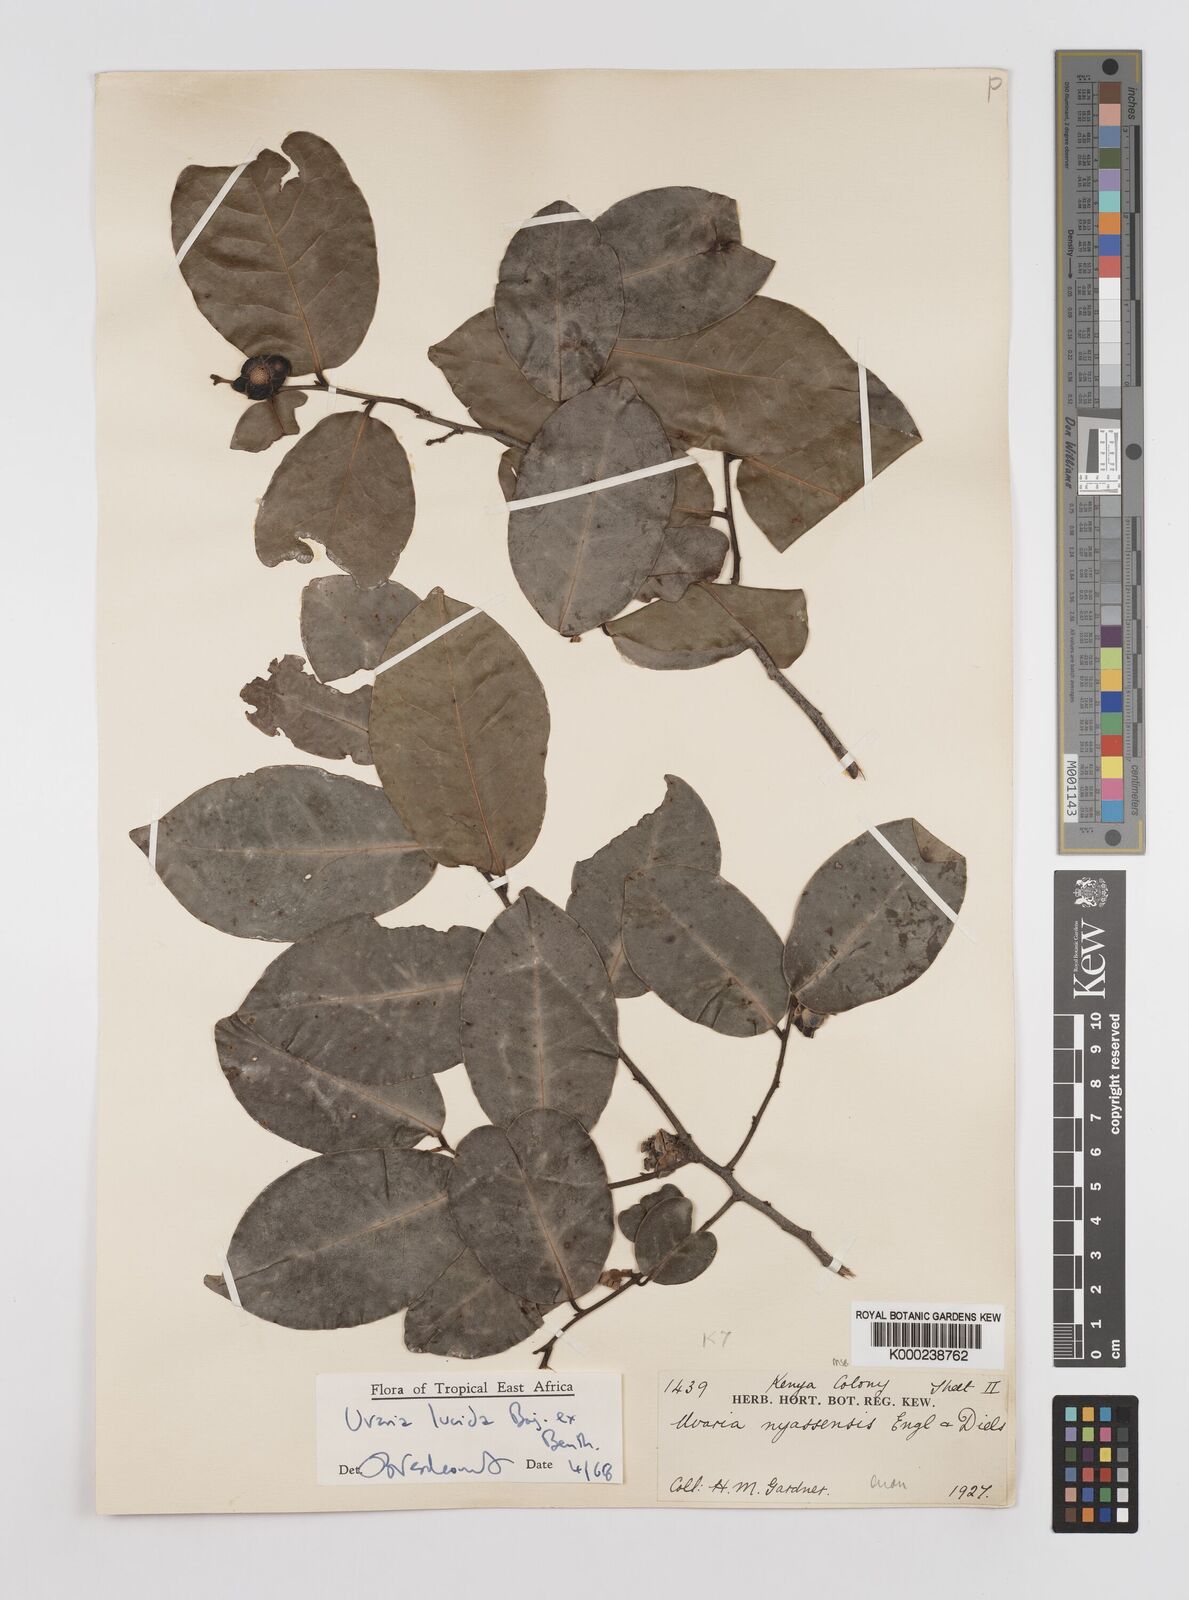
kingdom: Plantae
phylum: Tracheophyta
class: Magnoliopsida
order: Magnoliales
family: Annonaceae
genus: Uvaria
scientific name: Uvaria lucida
